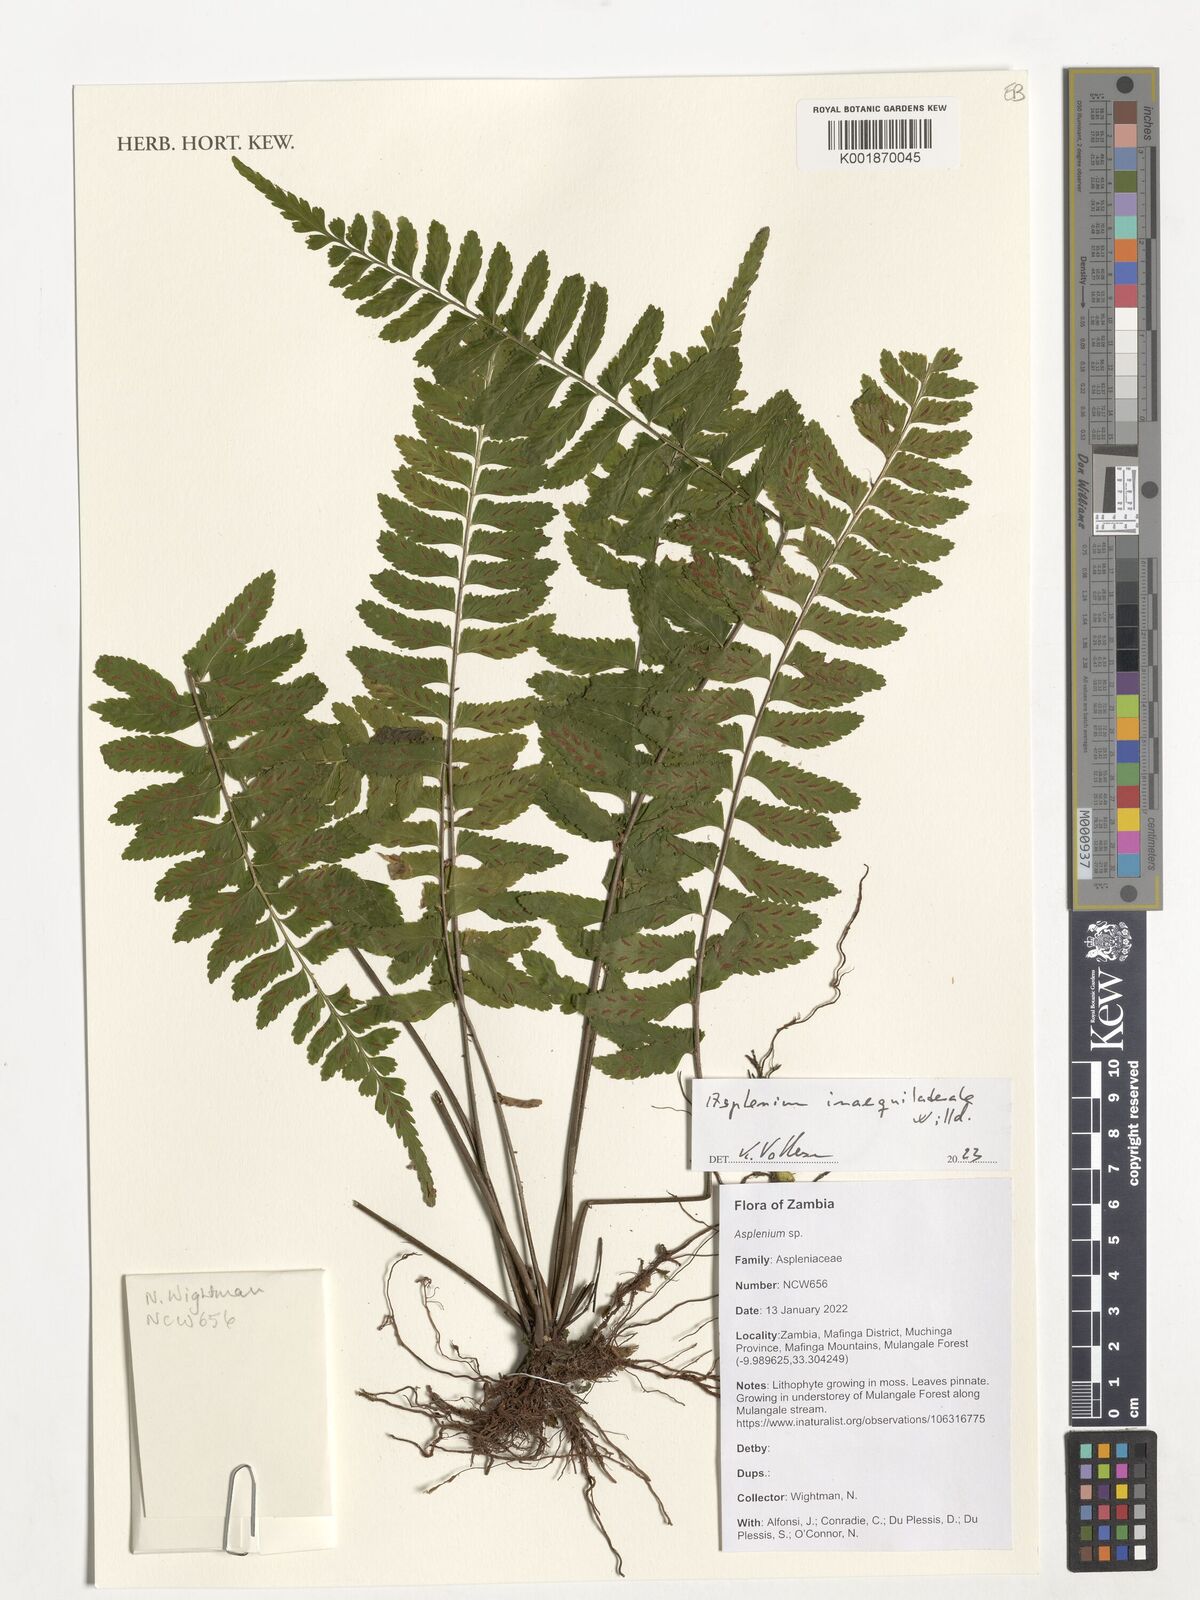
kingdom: Plantae
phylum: Tracheophyta
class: Polypodiopsida
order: Polypodiales
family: Aspleniaceae
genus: Asplenium
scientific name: Asplenium inaequilaterale
